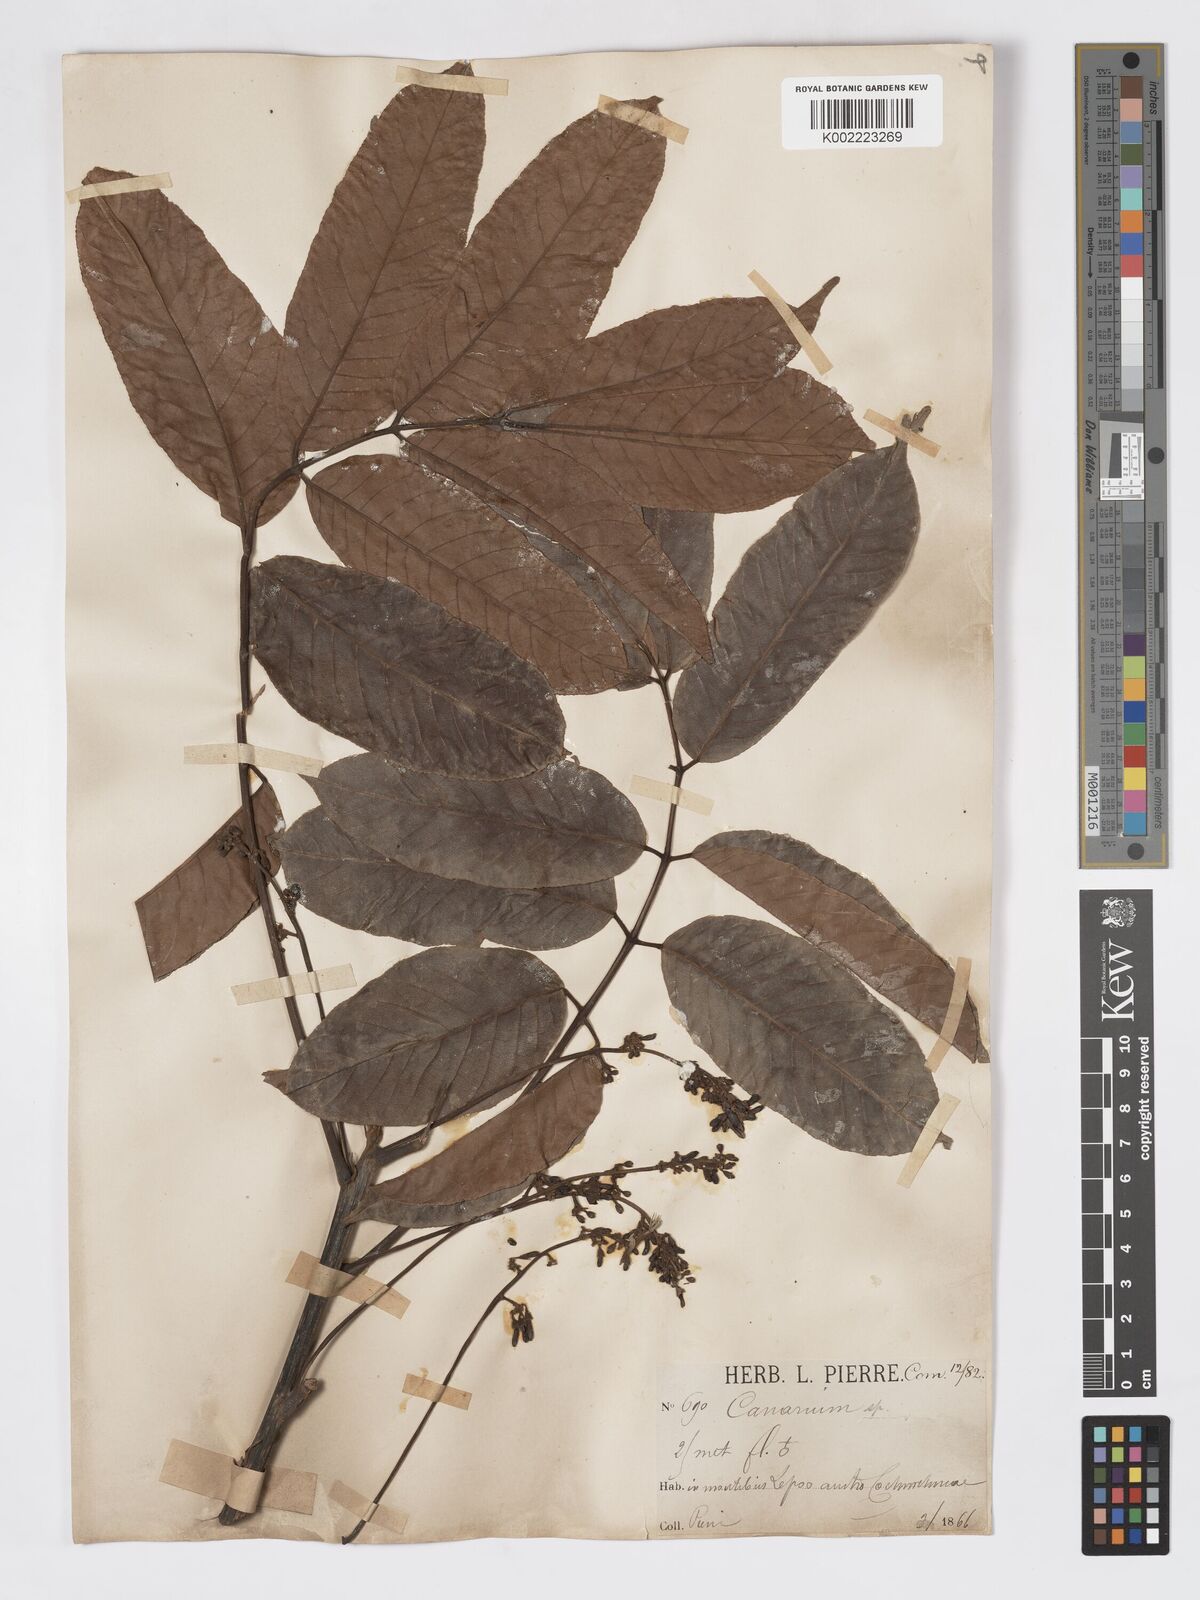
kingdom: Plantae
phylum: Tracheophyta
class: Magnoliopsida
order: Sapindales
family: Burseraceae
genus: Canarium
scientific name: Canarium subulatum
